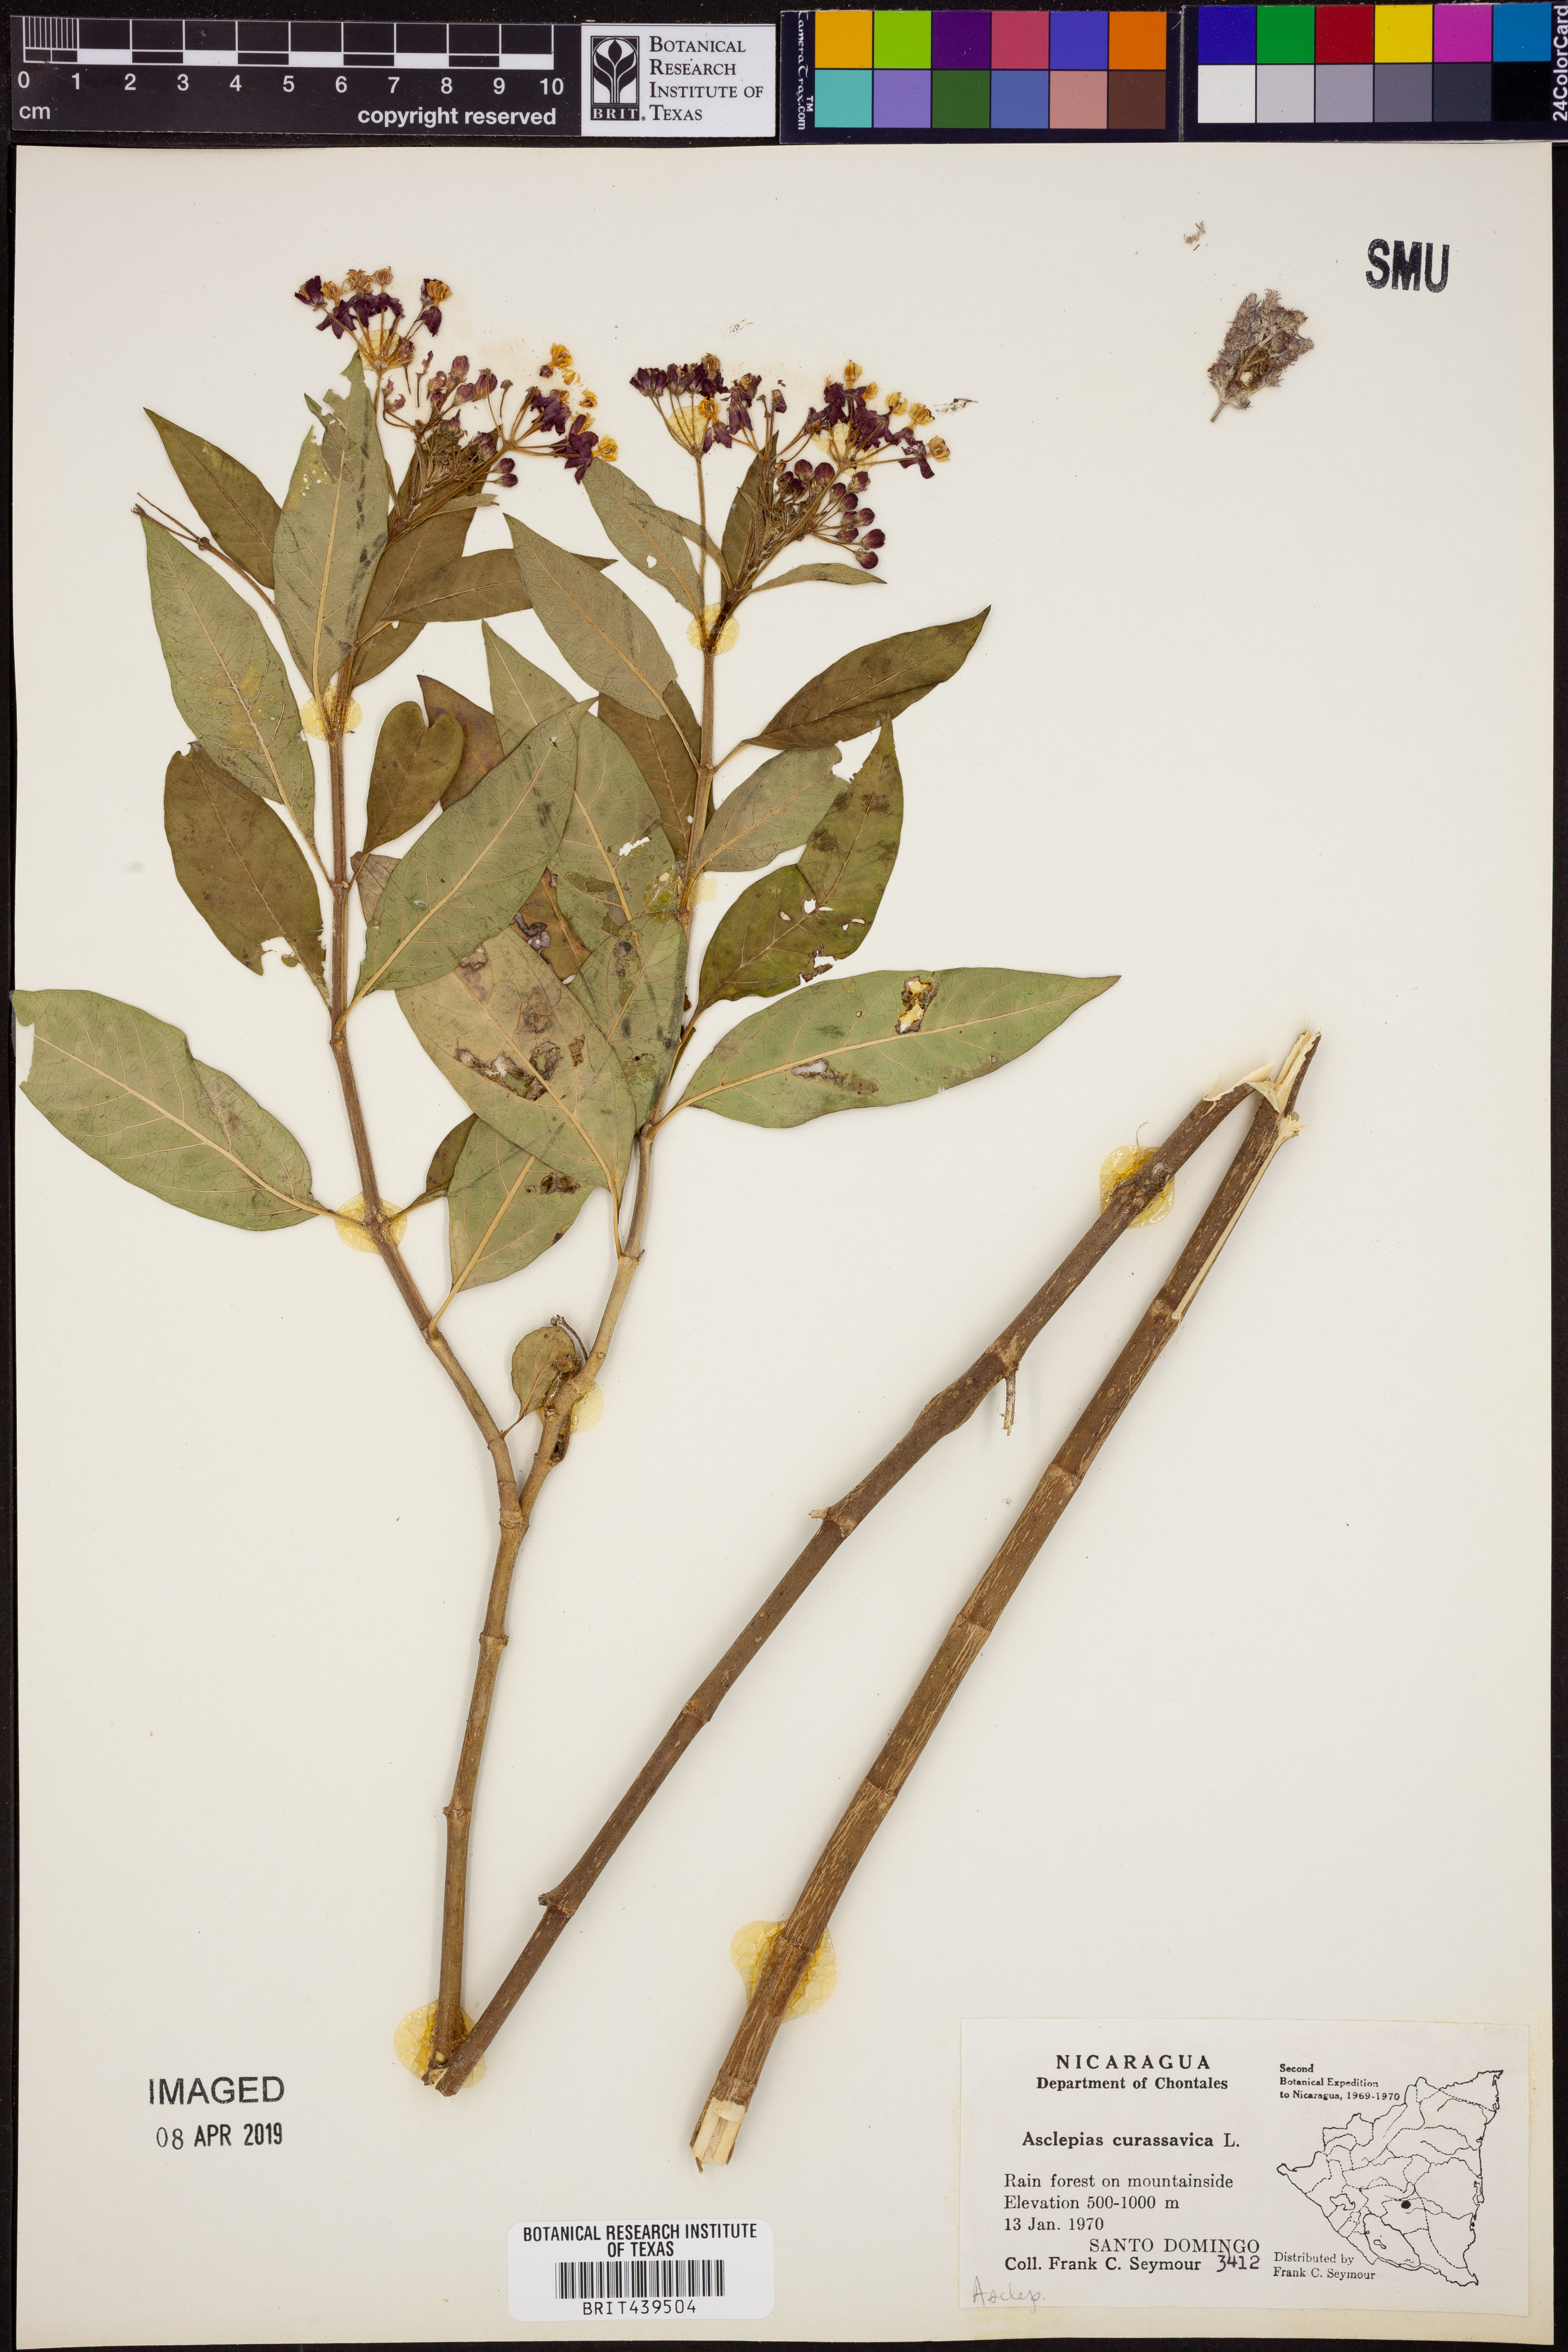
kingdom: Plantae
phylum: Tracheophyta
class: Magnoliopsida
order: Gentianales
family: Apocynaceae
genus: Asclepias
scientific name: Asclepias curassavica
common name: Bloodflower
